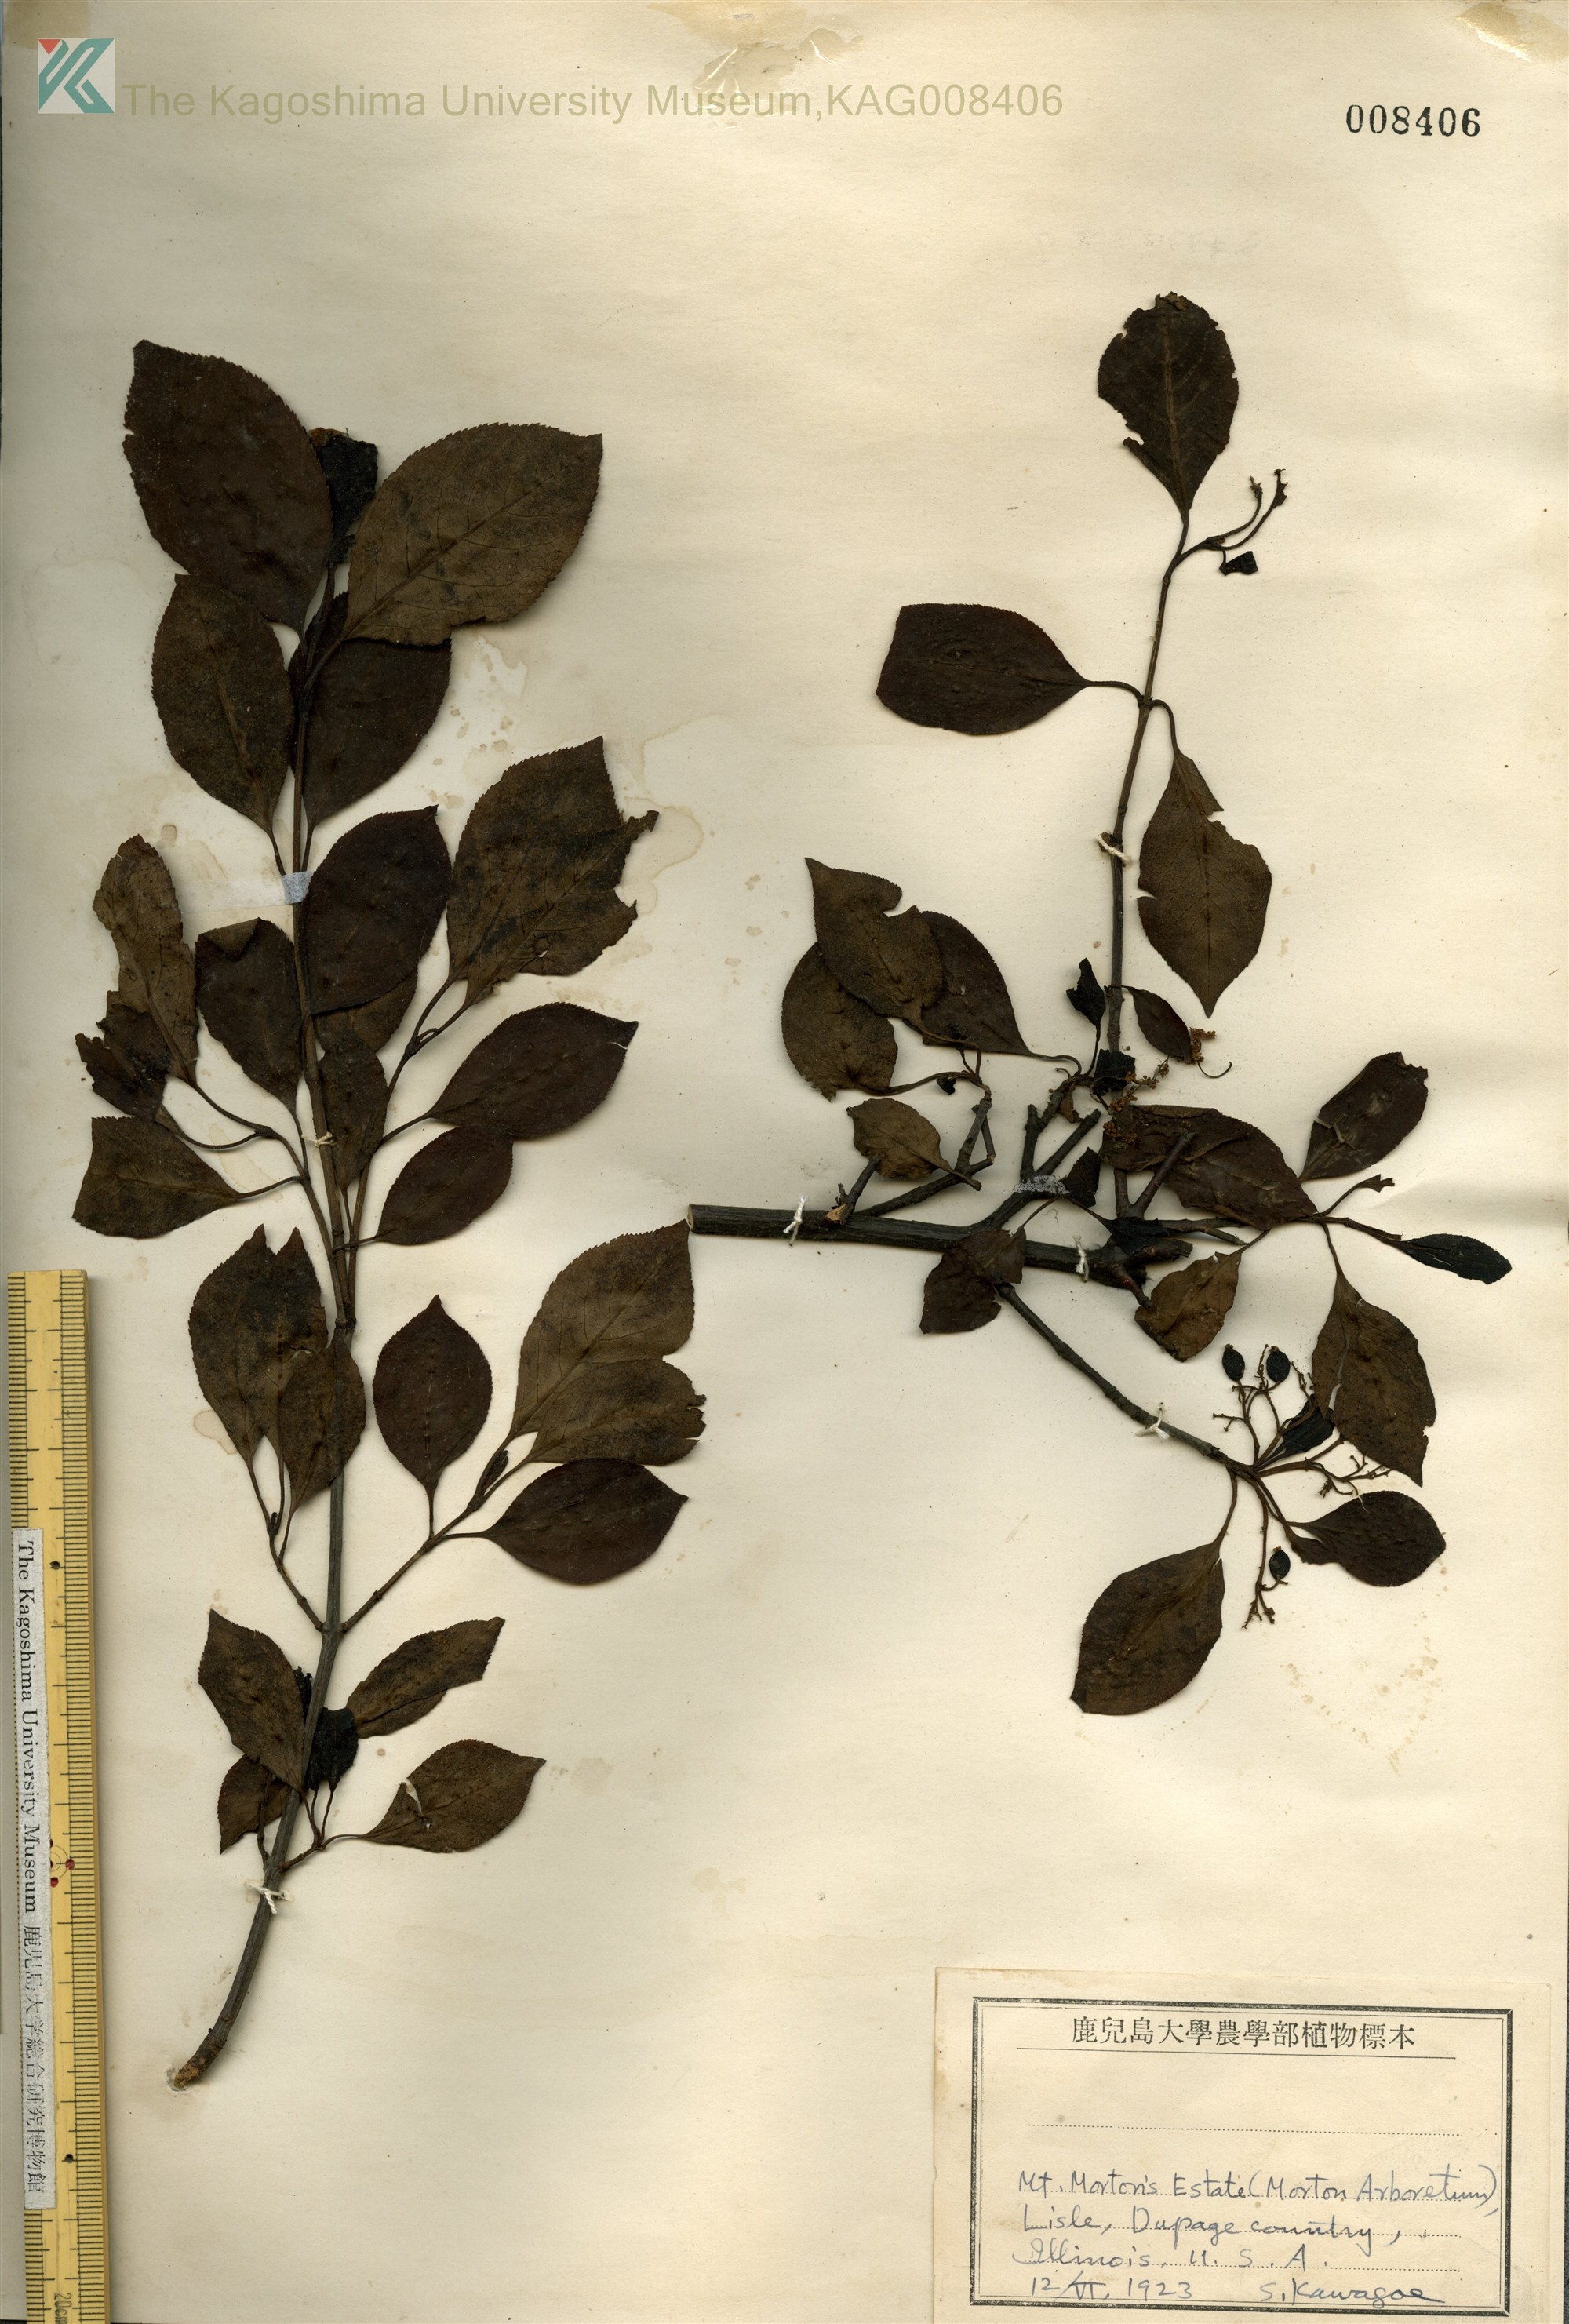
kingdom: Plantae
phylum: Tracheophyta
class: Magnoliopsida
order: Dipsacales
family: Viburnaceae
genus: Viburnum
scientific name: Viburnum cassinoides
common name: Swamp haw
